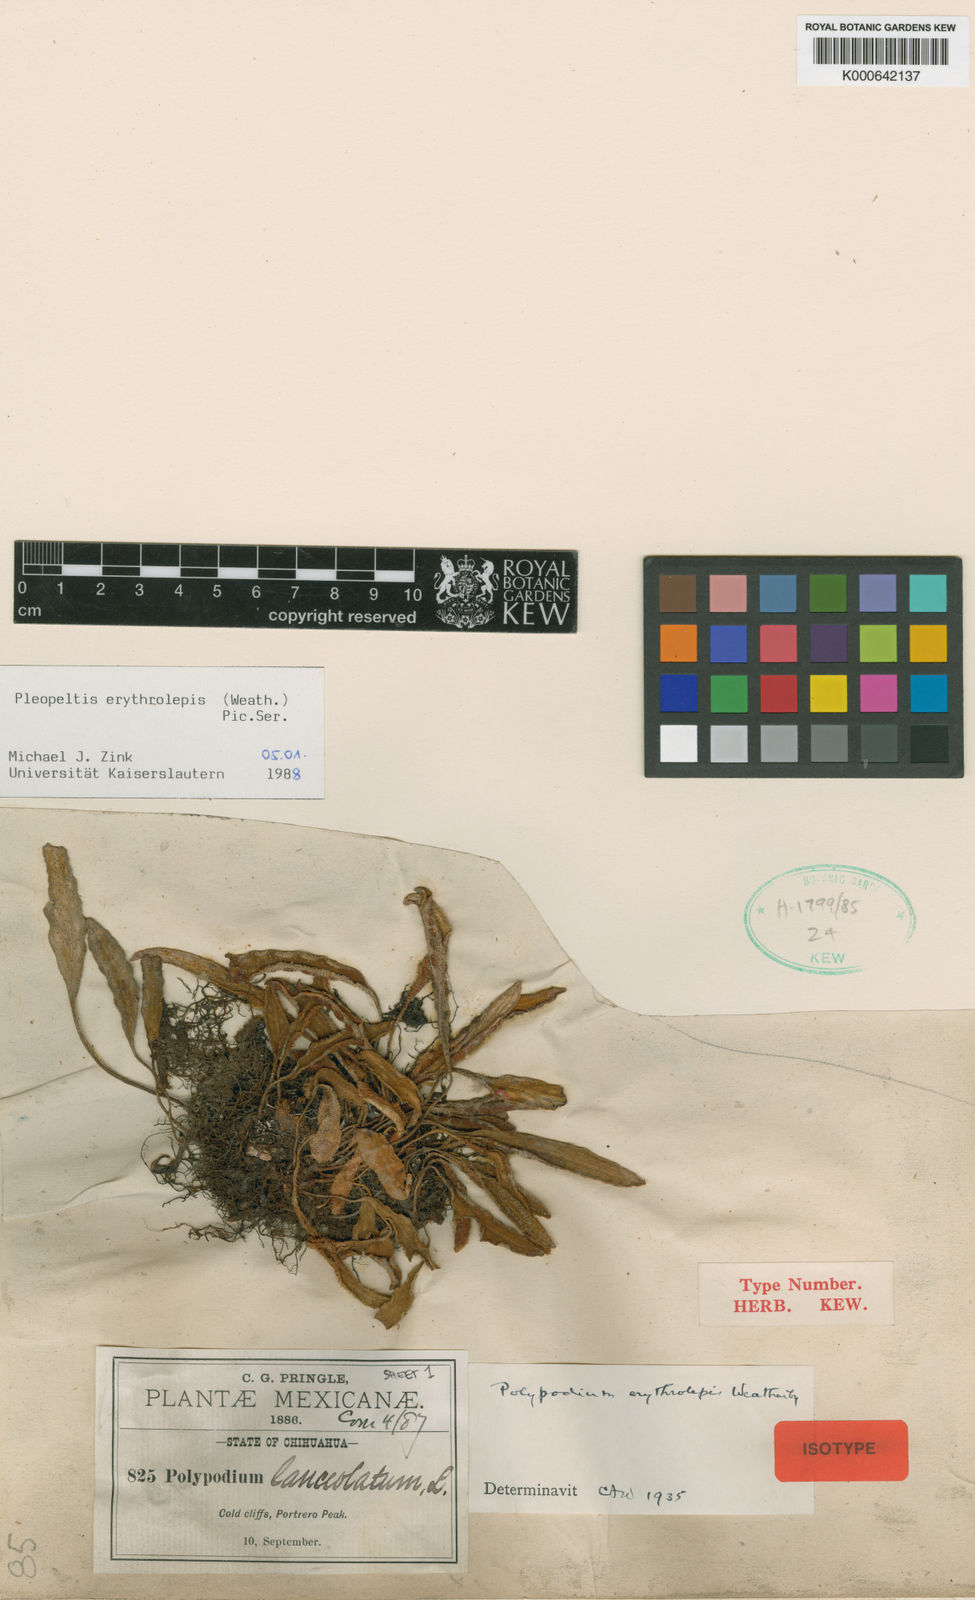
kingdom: Plantae
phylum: Tracheophyta
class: Polypodiopsida
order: Polypodiales
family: Polypodiaceae
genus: Pleopeltis
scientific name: Pleopeltis polylepis
